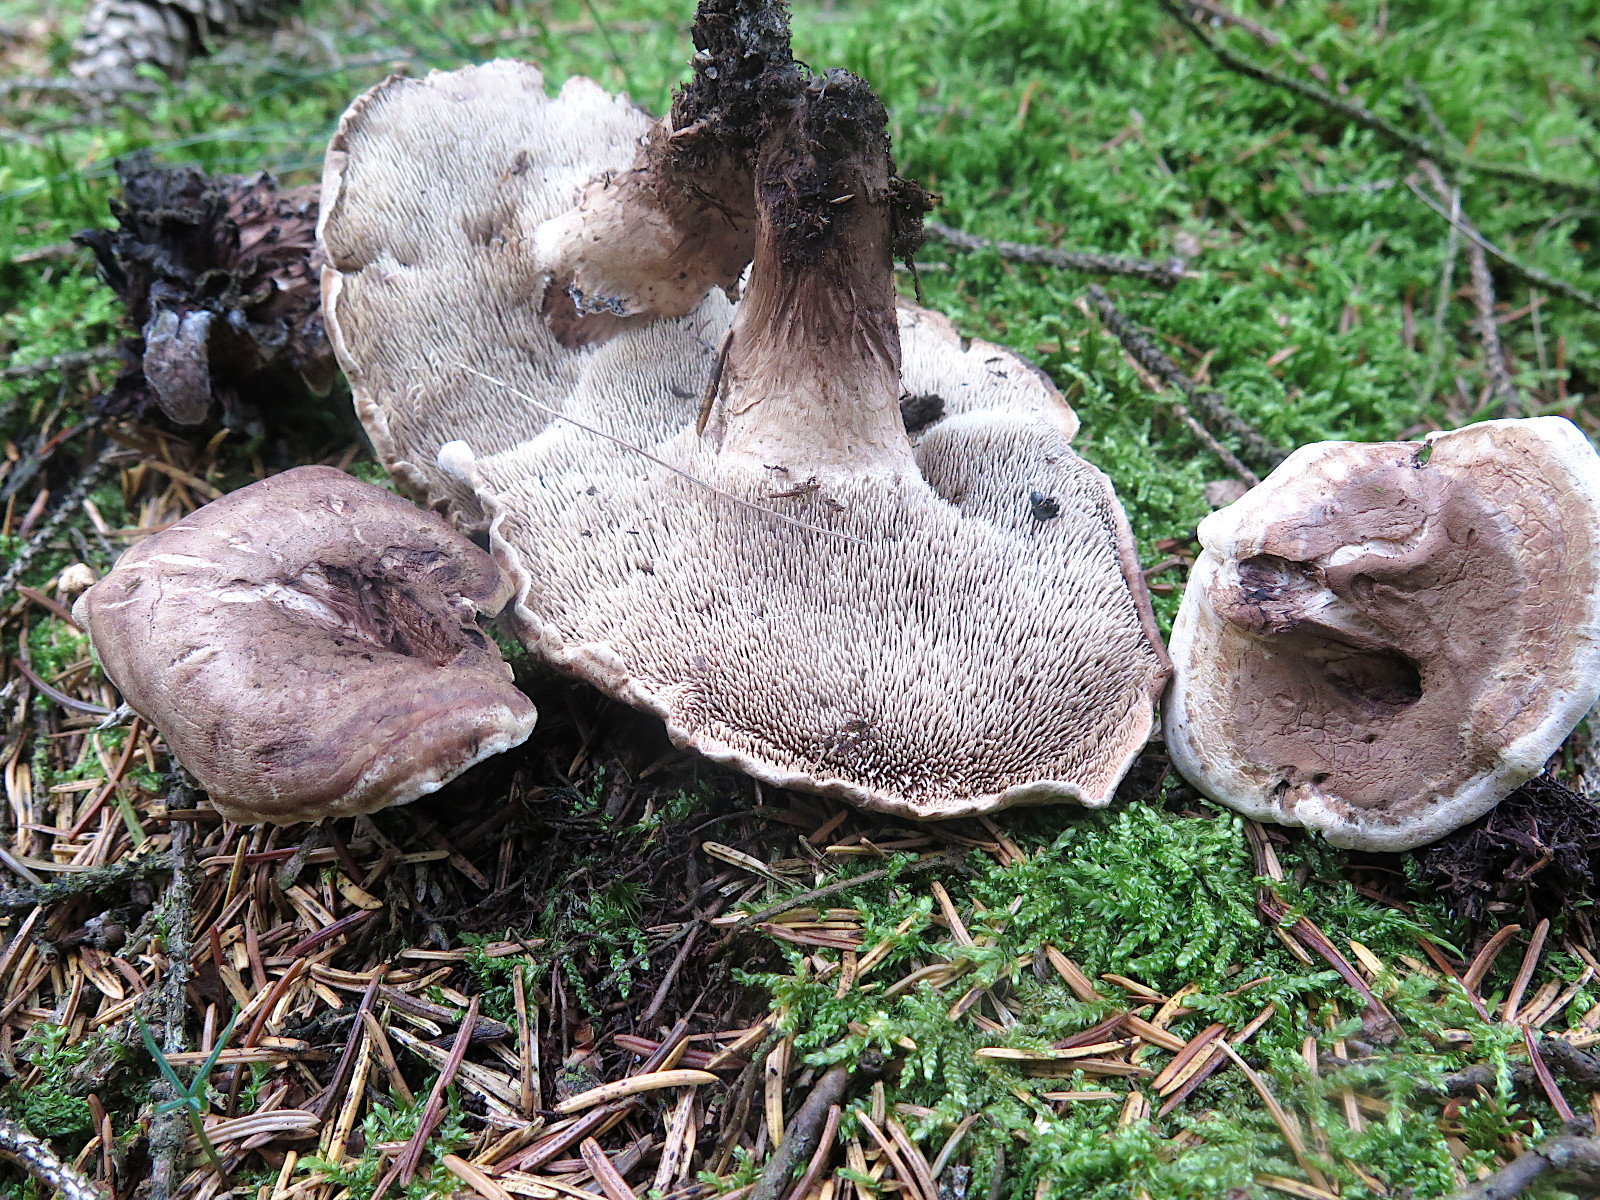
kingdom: Fungi
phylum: Basidiomycota
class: Agaricomycetes
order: Thelephorales
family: Thelephoraceae
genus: Phellodon
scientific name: Phellodon violascens
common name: violetbrun duftpigsvamp
